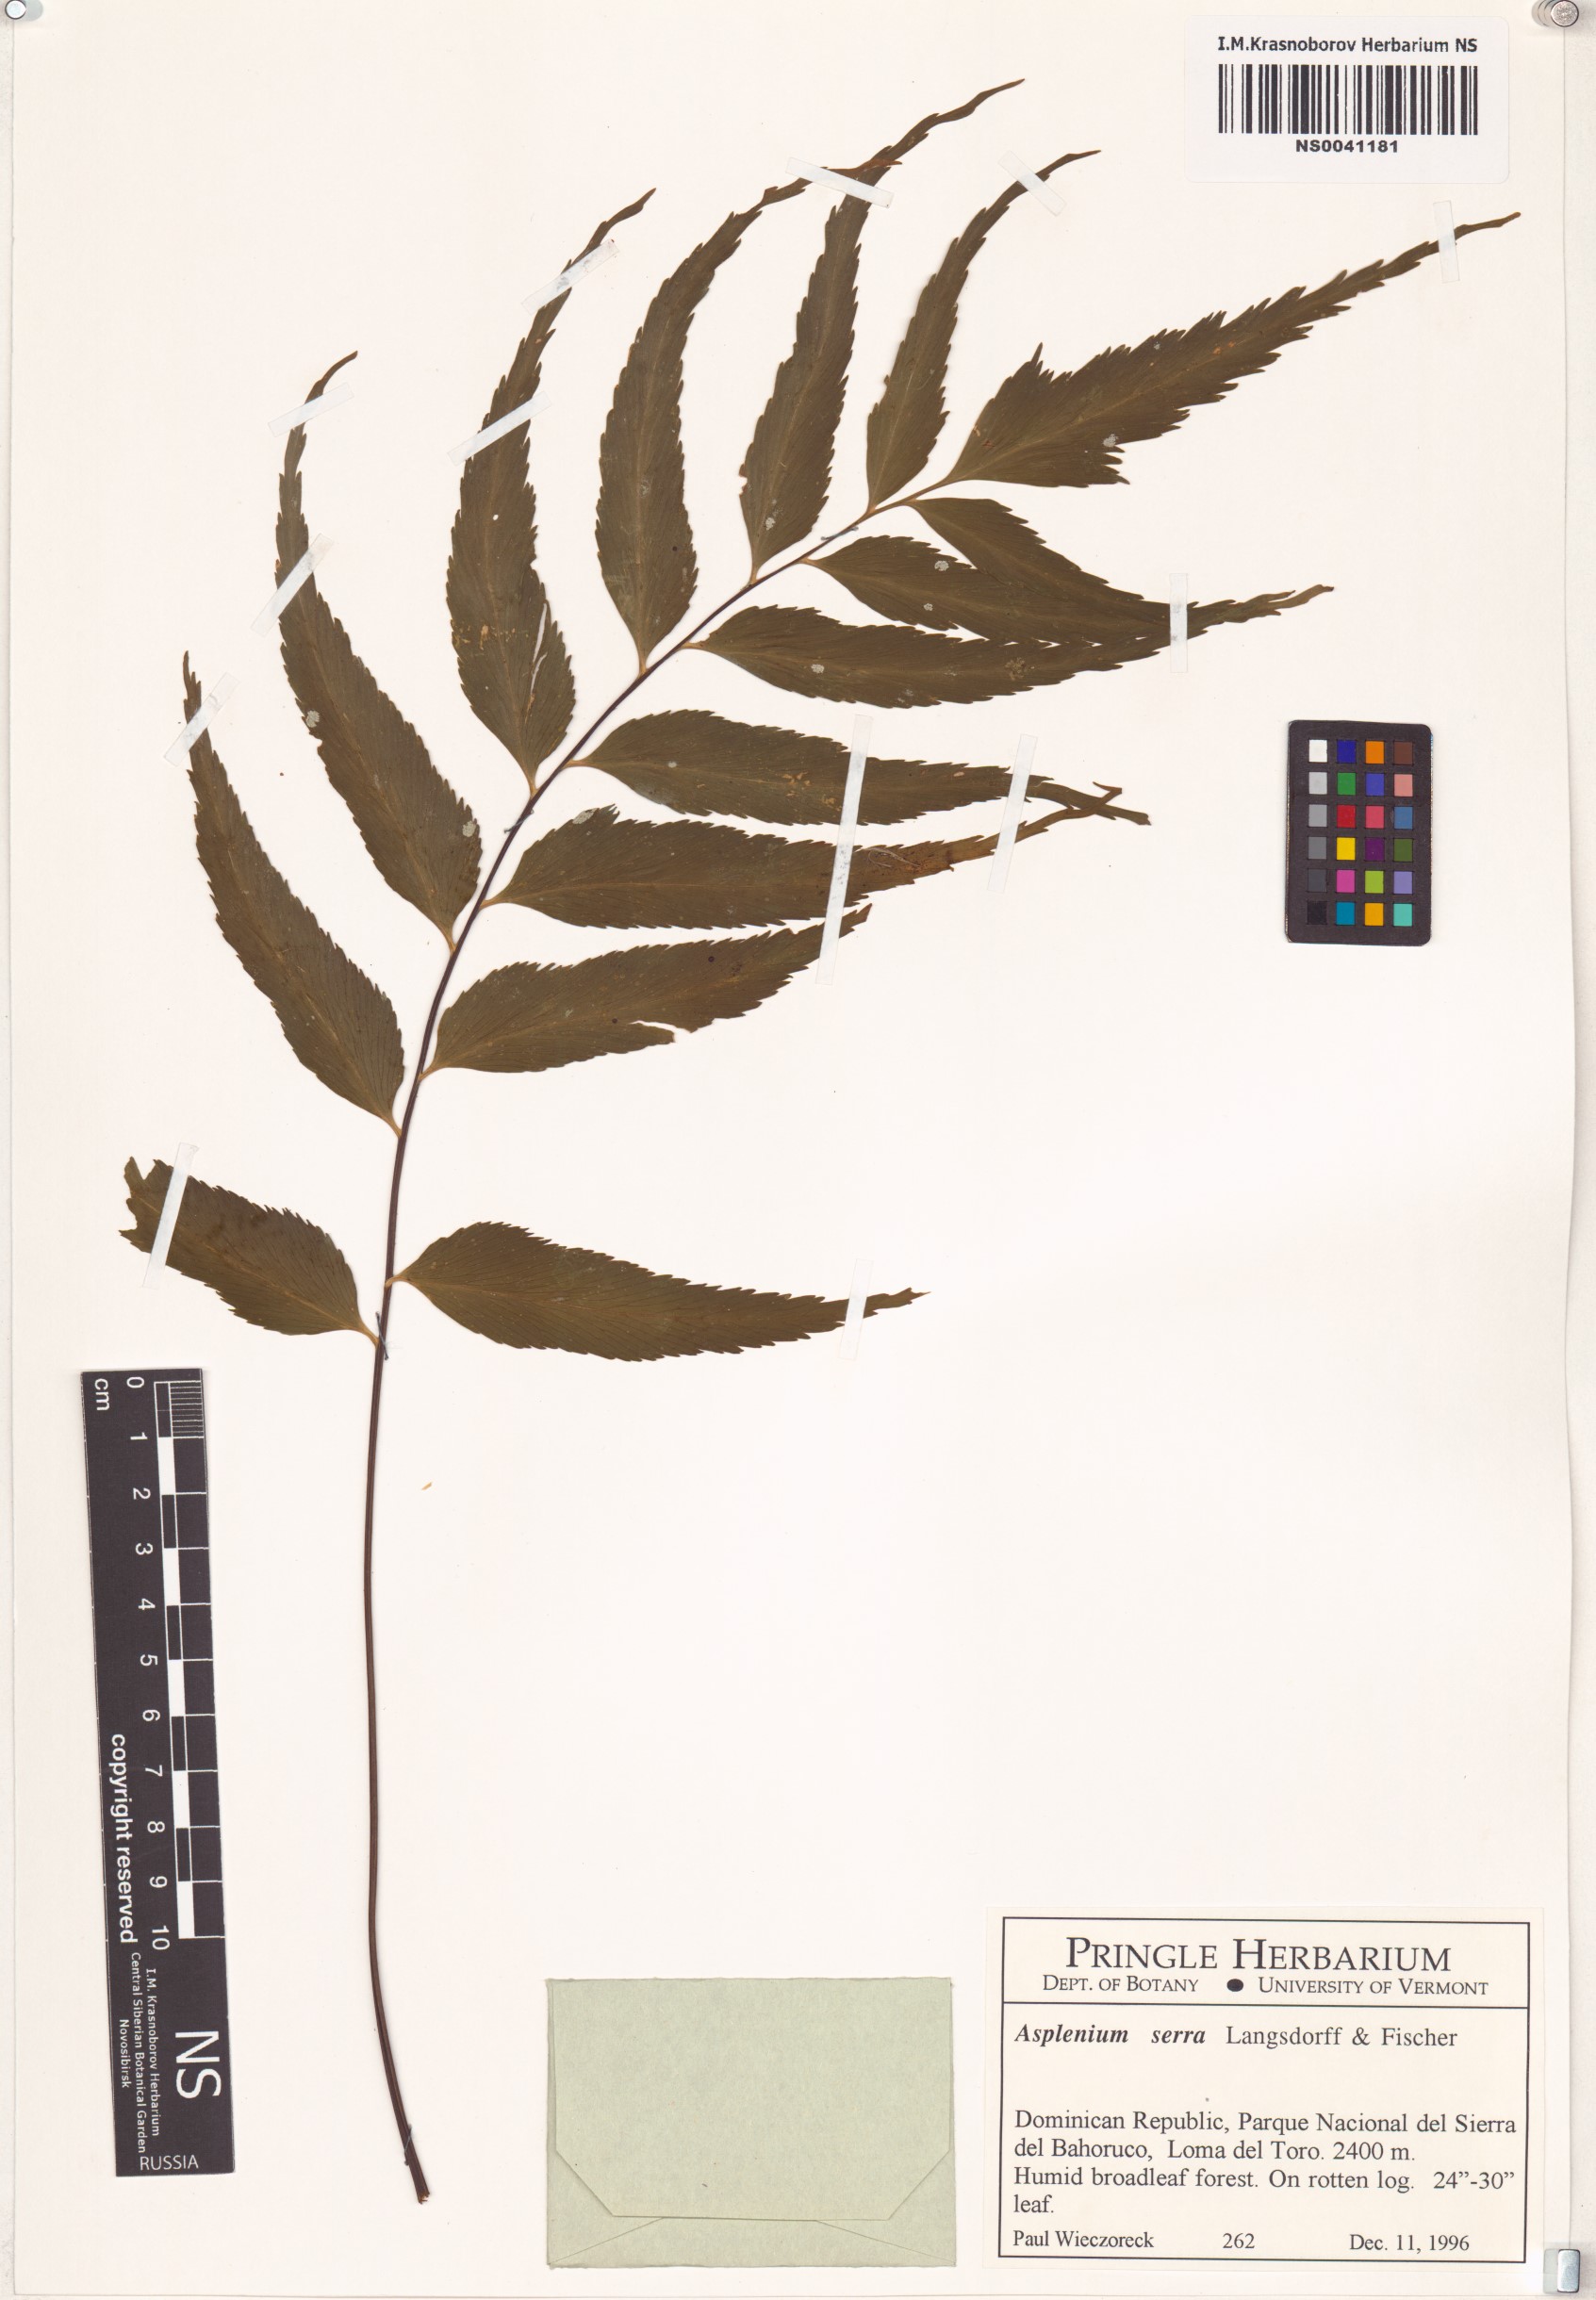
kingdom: Plantae
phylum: Tracheophyta
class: Polypodiopsida
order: Polypodiales
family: Aspleniaceae
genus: Asplenium
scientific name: Asplenium serra
